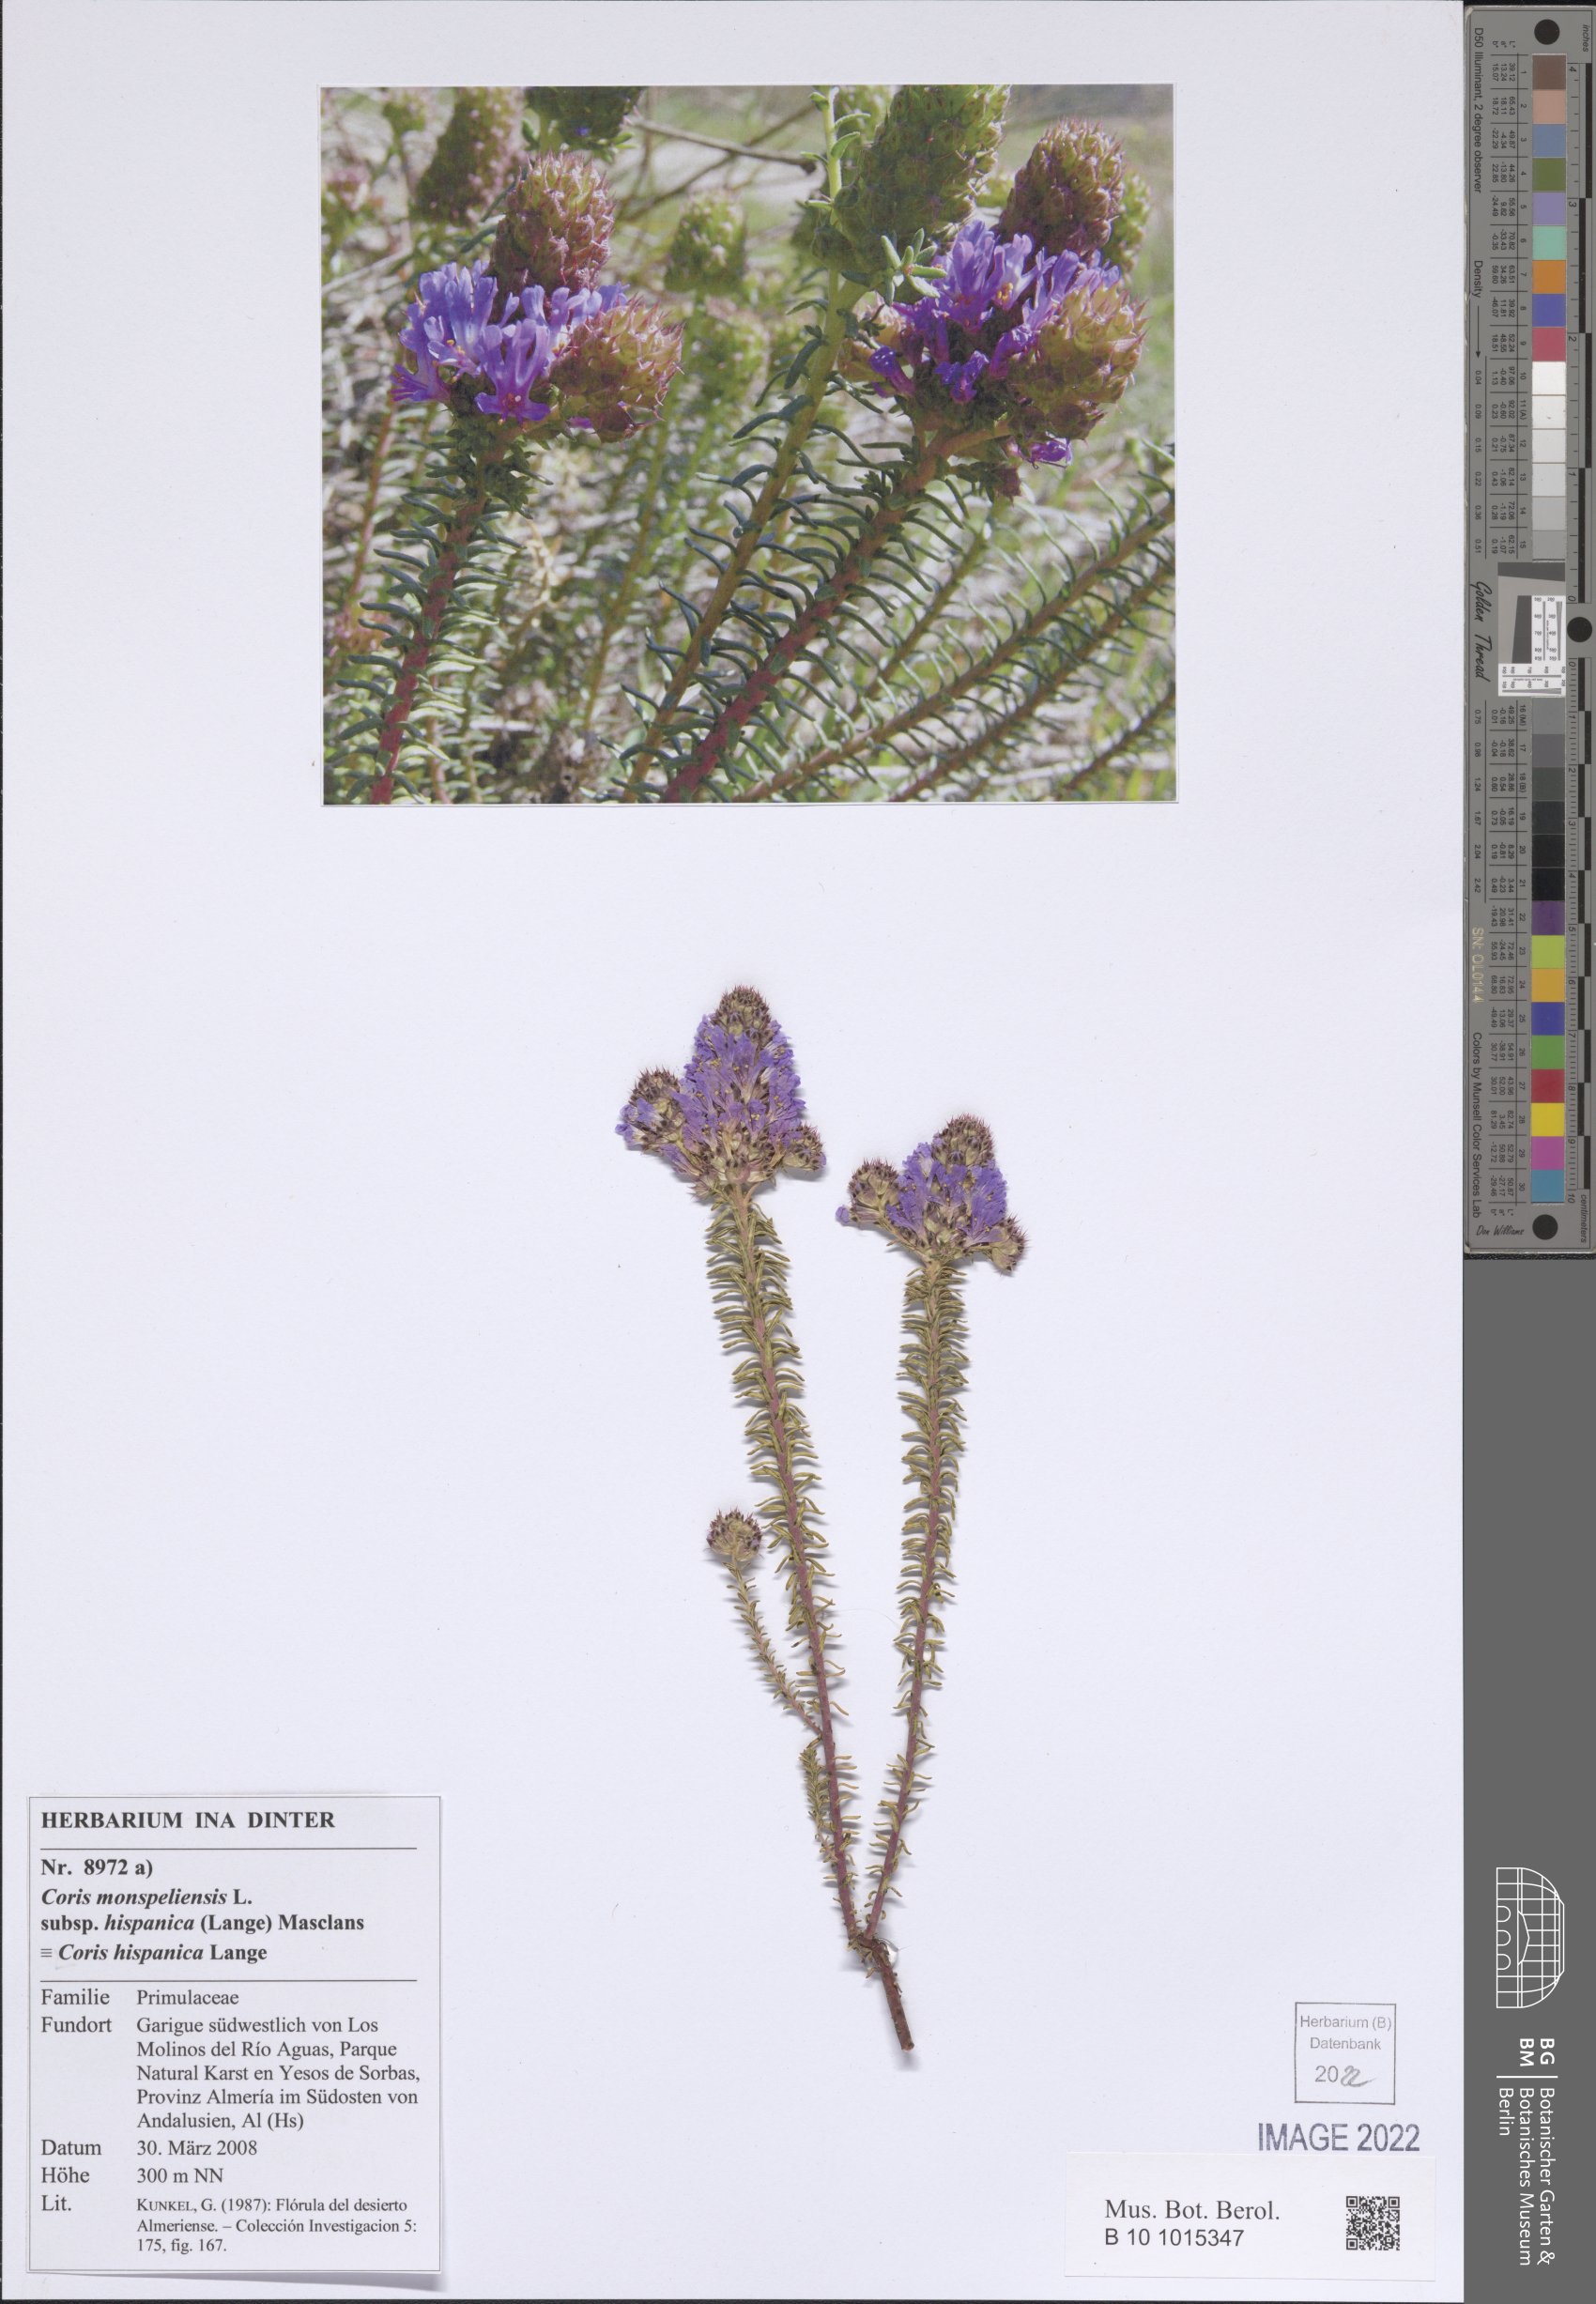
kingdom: Plantae
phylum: Tracheophyta
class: Magnoliopsida
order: Ericales
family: Primulaceae
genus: Coris
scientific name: Coris monspeliensis
